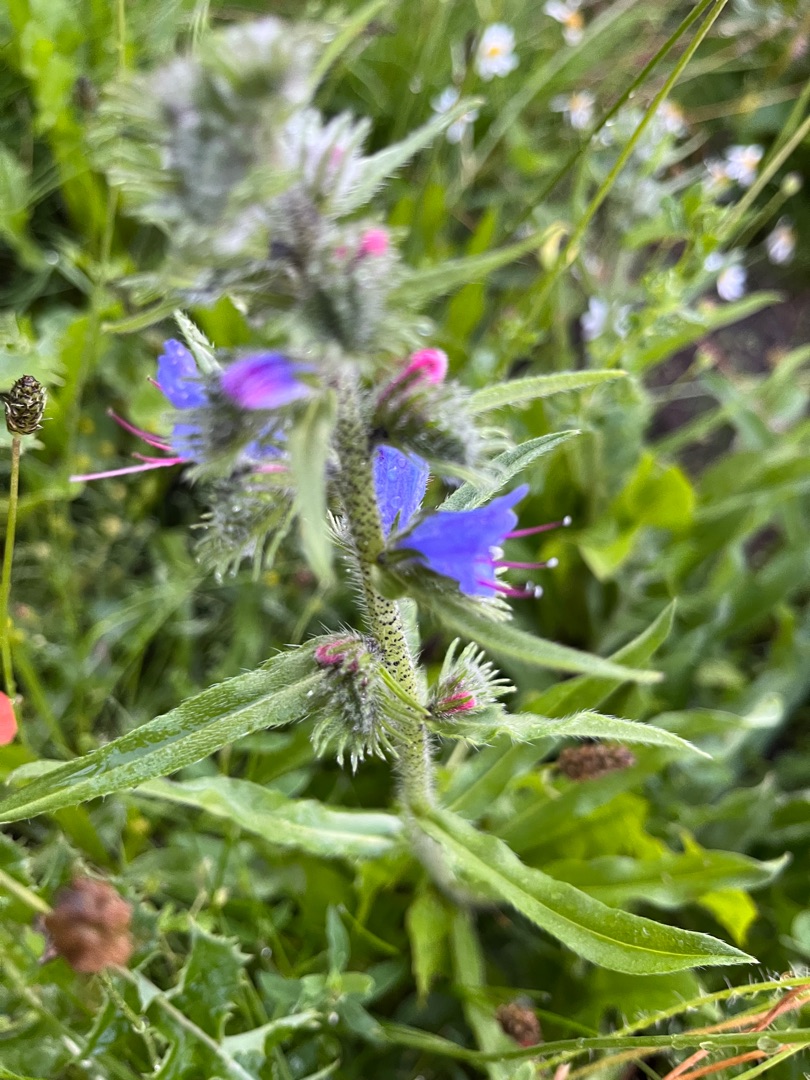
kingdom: Plantae
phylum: Tracheophyta
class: Magnoliopsida
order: Boraginales
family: Boraginaceae
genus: Echium
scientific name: Echium vulgare
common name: Slangehoved
